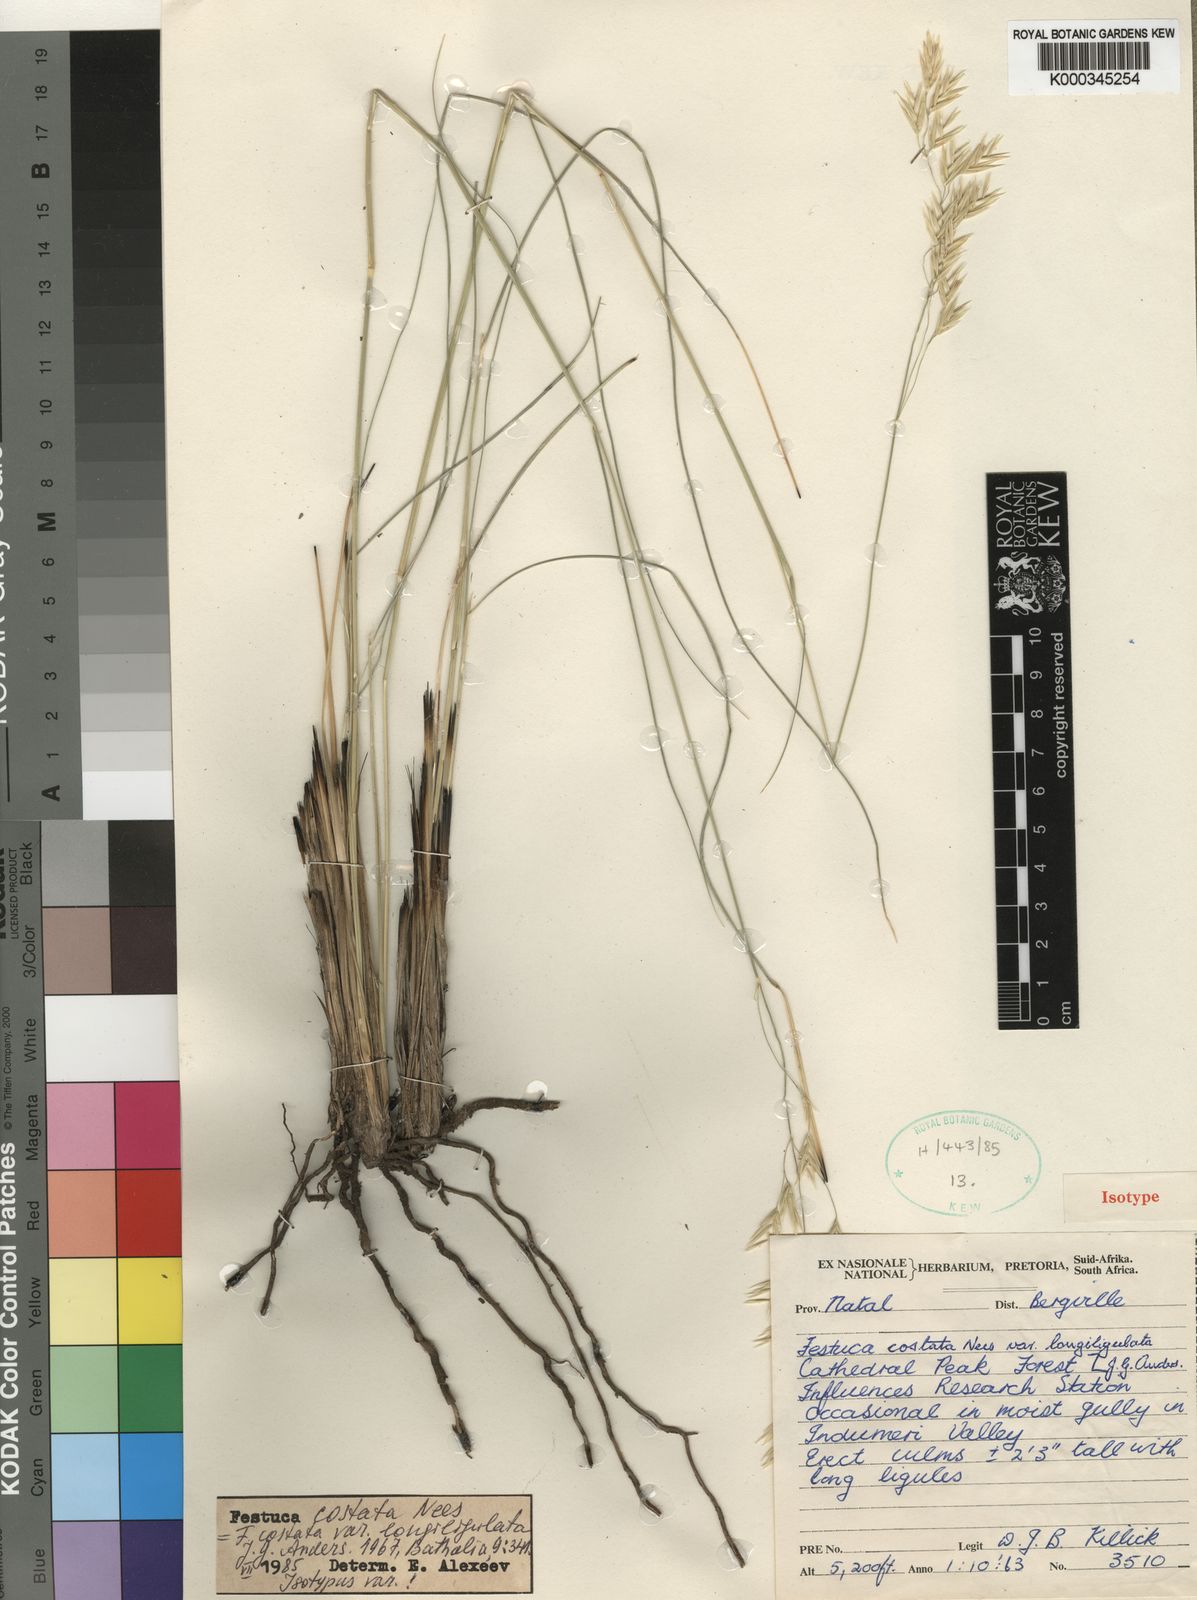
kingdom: Plantae
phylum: Tracheophyta
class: Liliopsida
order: Poales
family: Poaceae
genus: Festuca
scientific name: Festuca costata
